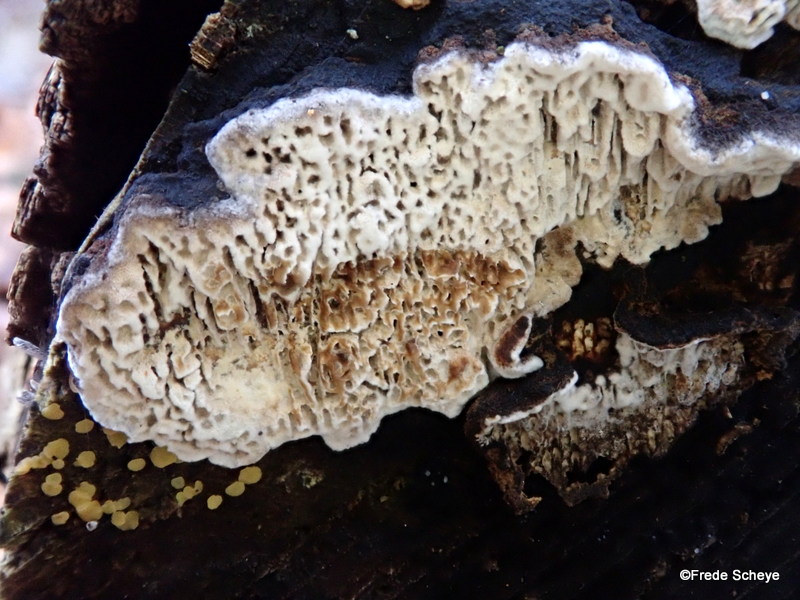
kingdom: Fungi
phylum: Basidiomycota
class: Agaricomycetes
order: Polyporales
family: Polyporaceae
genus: Podofomes
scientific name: Podofomes mollis
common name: blød begporesvamp
